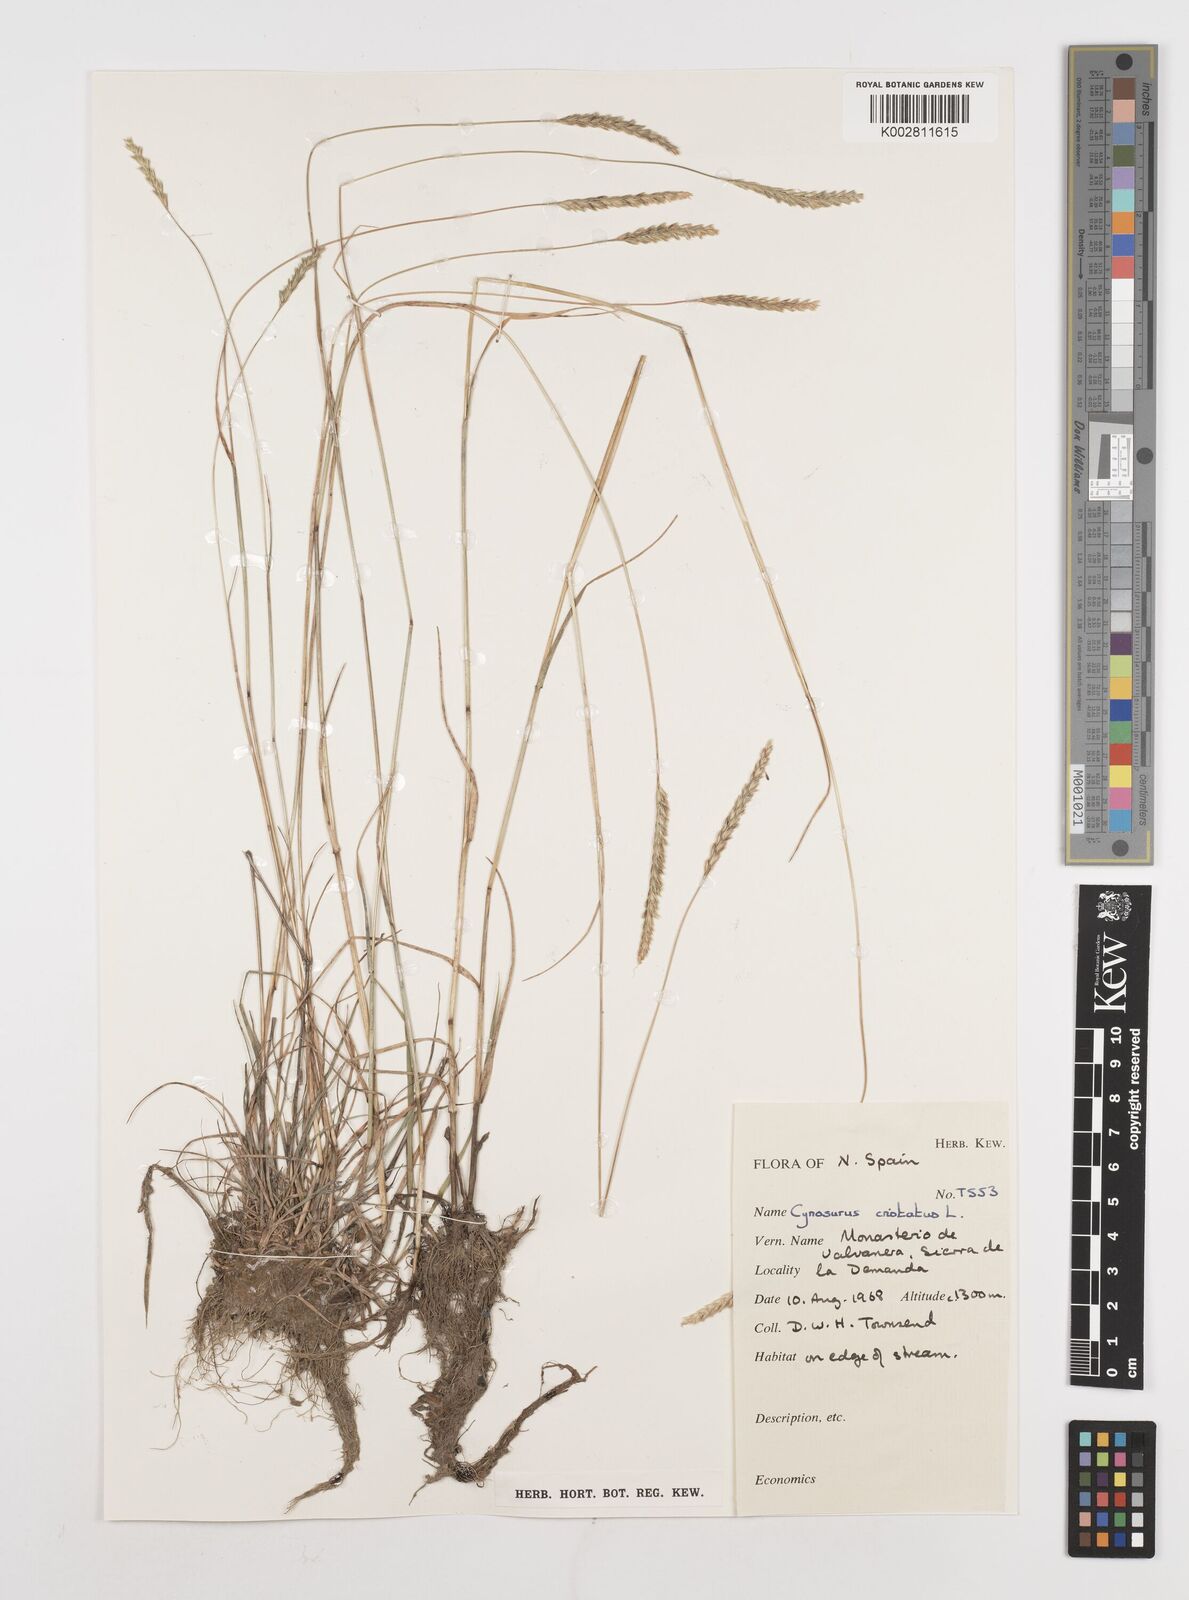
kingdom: Plantae
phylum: Tracheophyta
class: Liliopsida
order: Poales
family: Poaceae
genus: Cynosurus
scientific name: Cynosurus cristatus
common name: Crested dog's-tail
